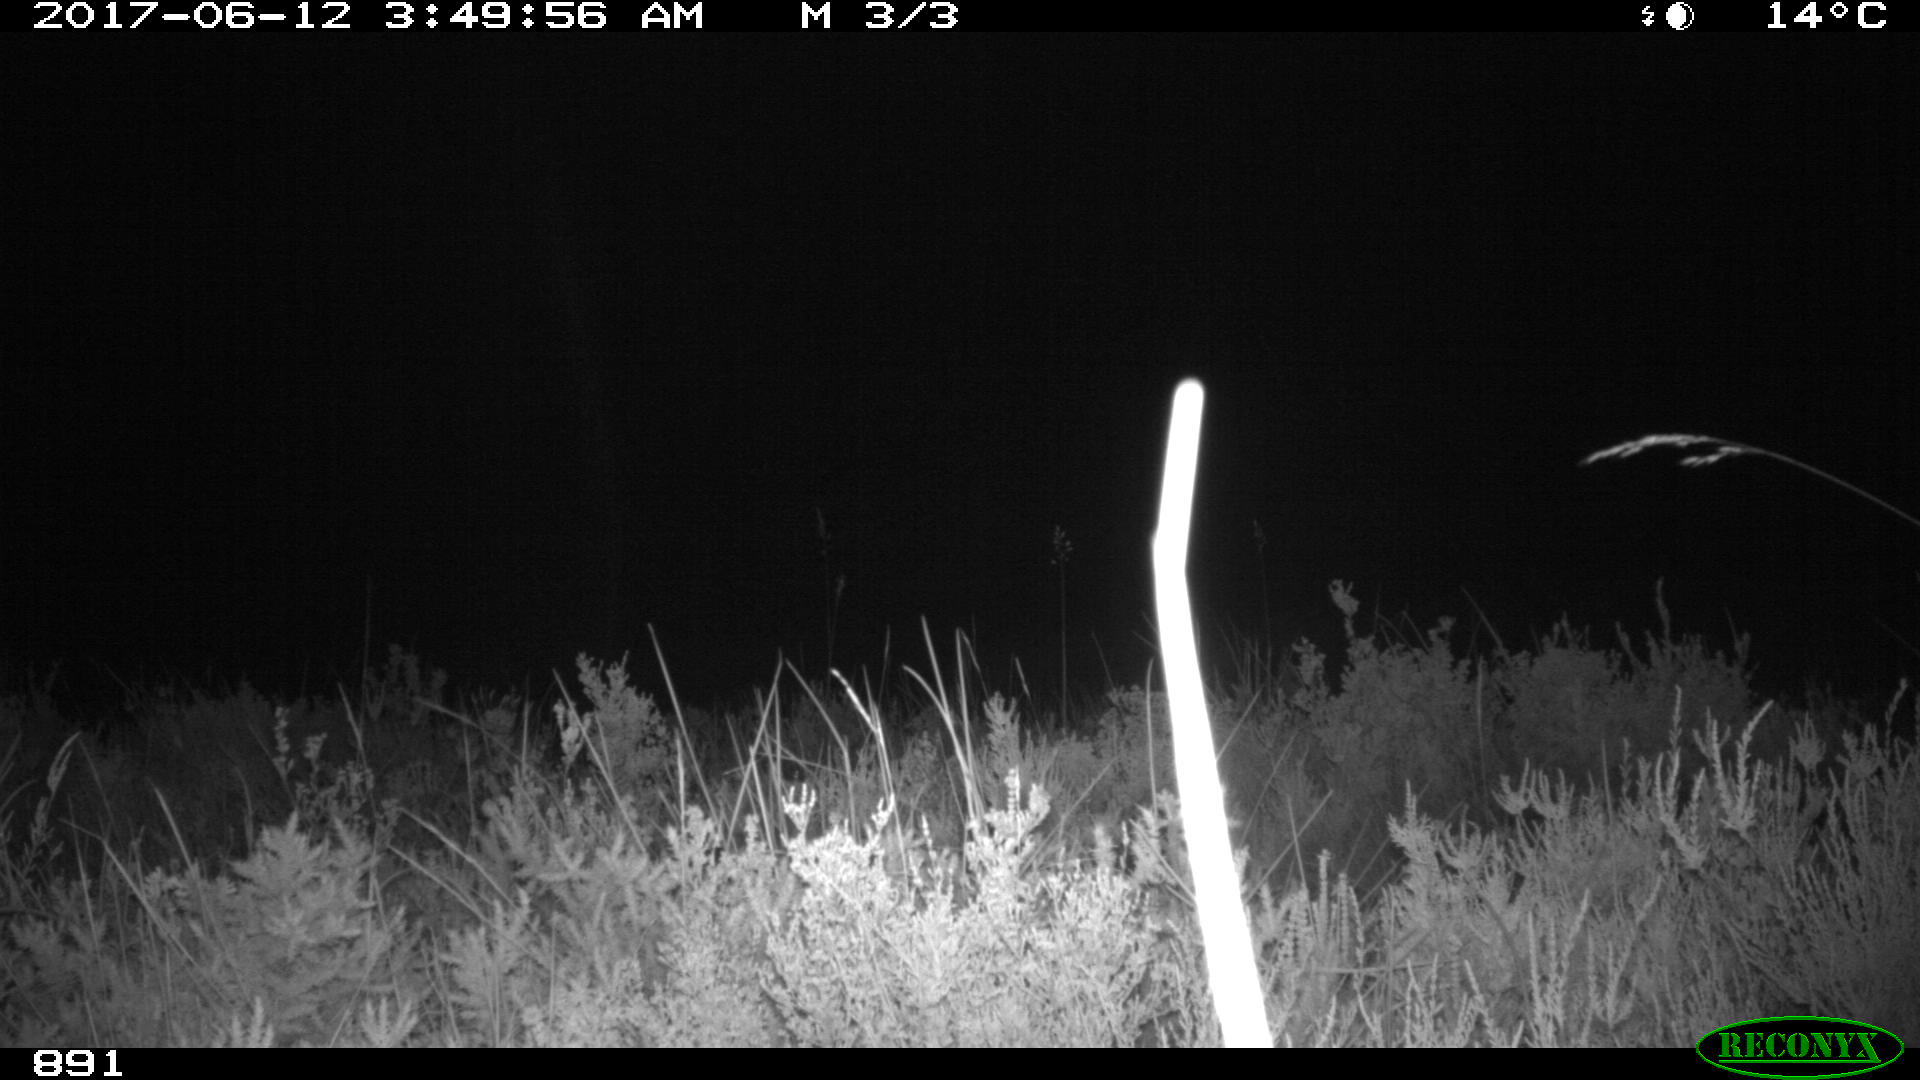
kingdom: Animalia
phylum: Chordata
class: Mammalia
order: Perissodactyla
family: Equidae
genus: Equus
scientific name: Equus caballus
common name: Horse
